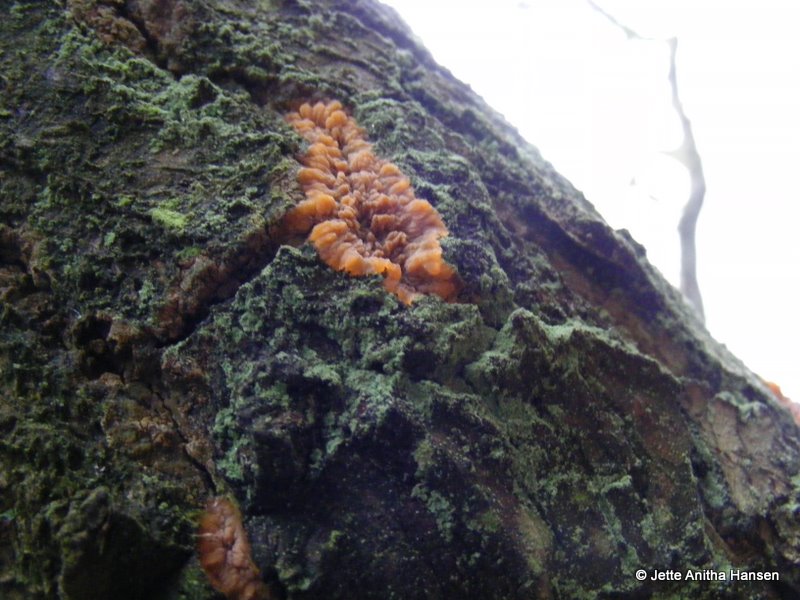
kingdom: Fungi
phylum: Basidiomycota
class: Agaricomycetes
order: Polyporales
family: Meruliaceae
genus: Phlebia
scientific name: Phlebia radiata
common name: stråle-åresvamp
